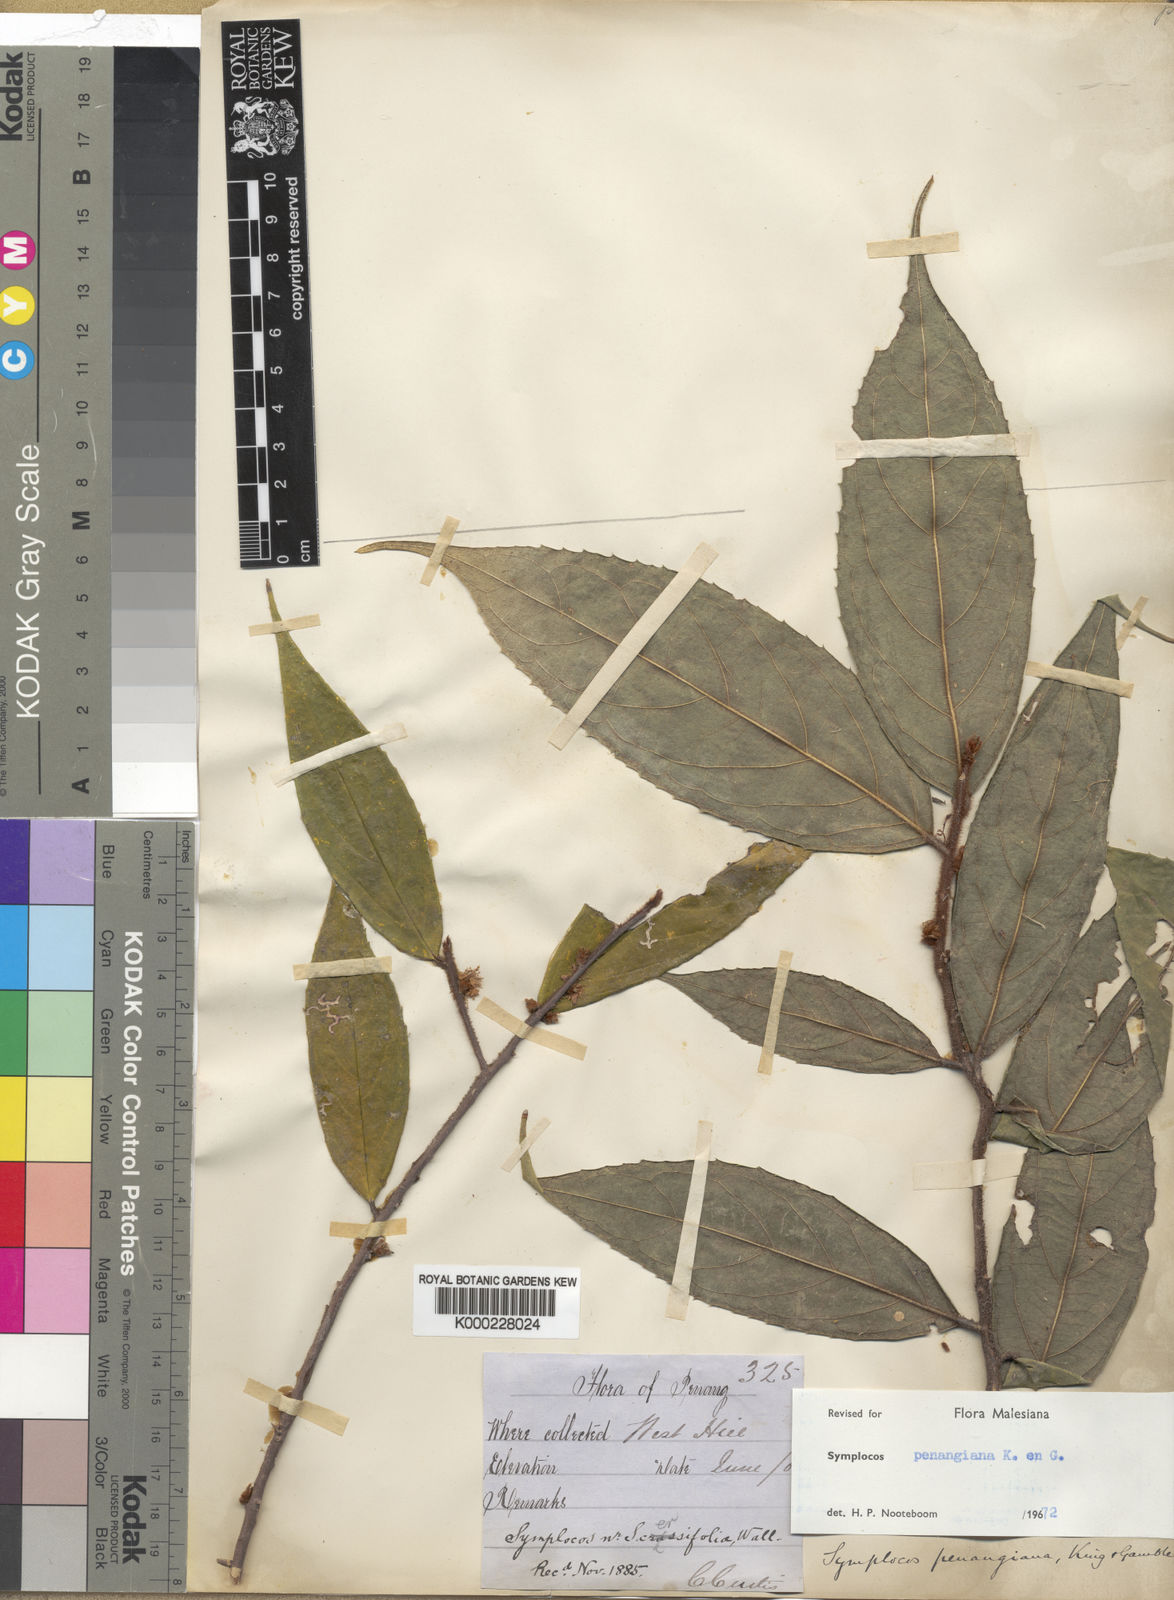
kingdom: Plantae
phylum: Tracheophyta
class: Magnoliopsida
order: Ericales
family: Symplocaceae
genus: Symplocos
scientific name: Symplocos crassipes
